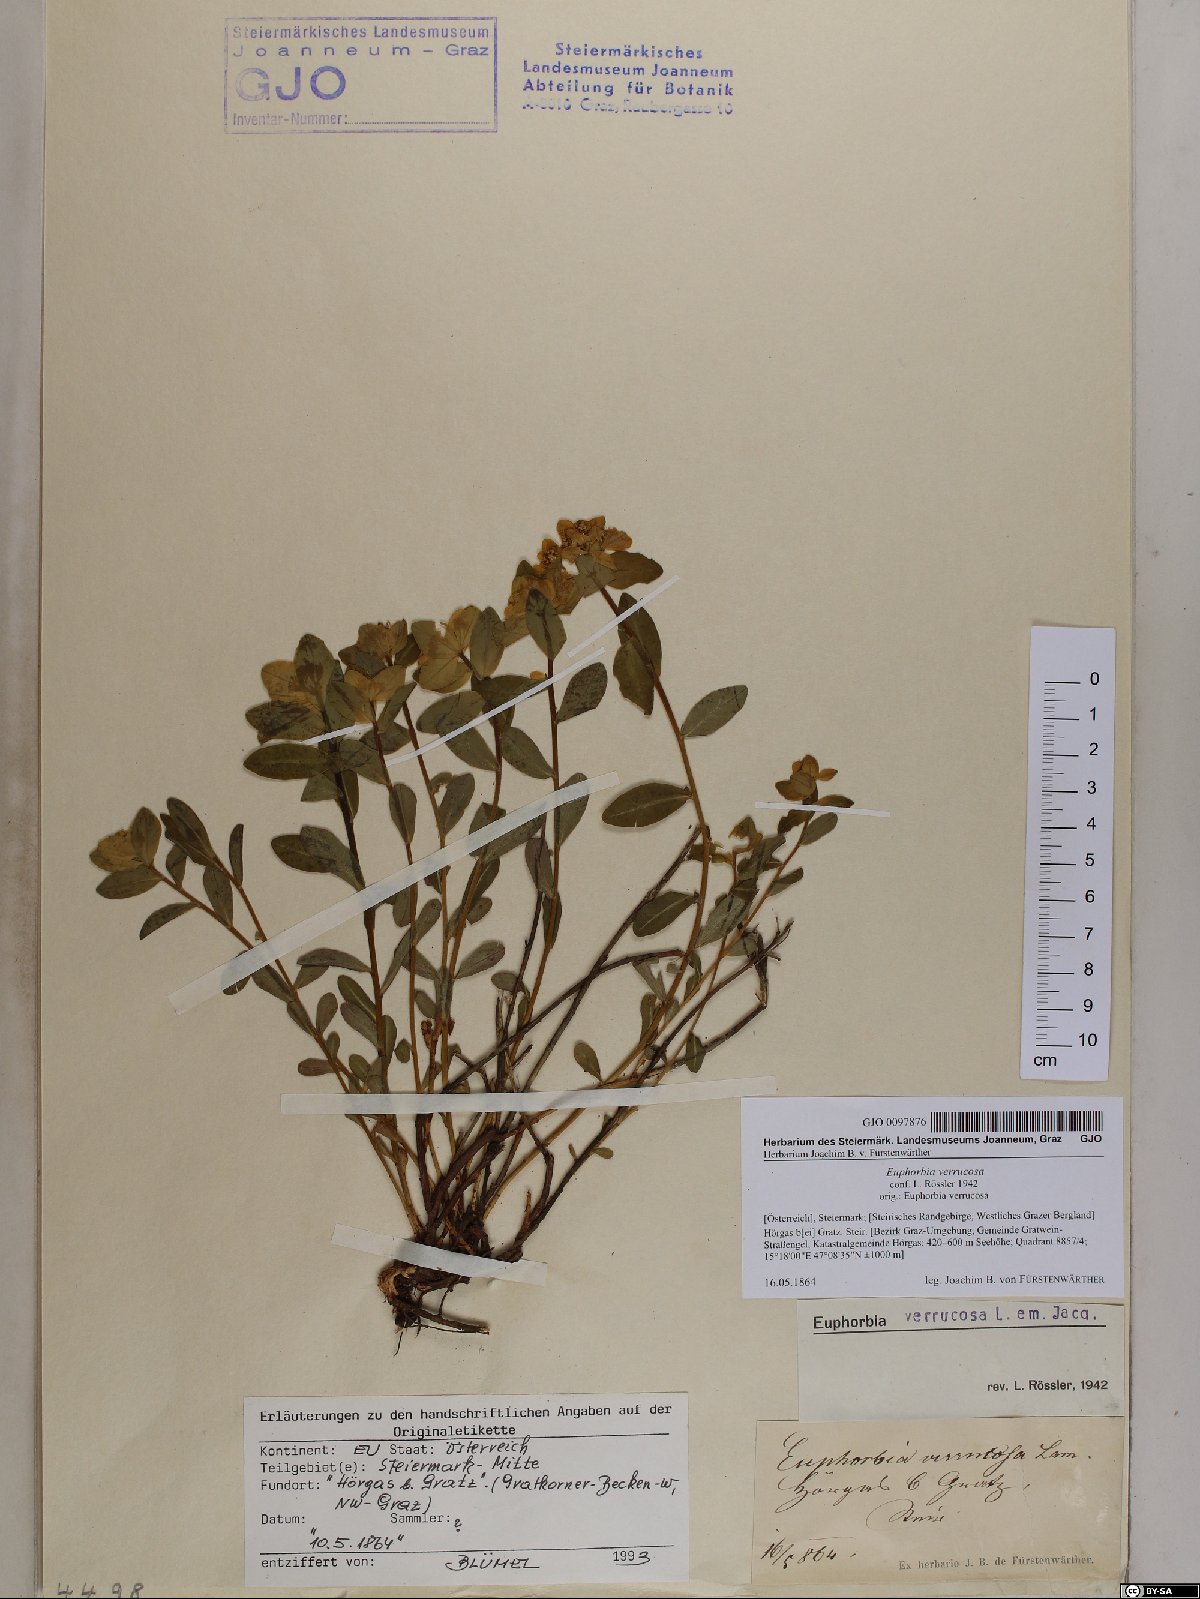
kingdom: Plantae
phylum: Tracheophyta
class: Magnoliopsida
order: Malpighiales
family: Euphorbiaceae
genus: Euphorbia
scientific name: Euphorbia verrucosa
